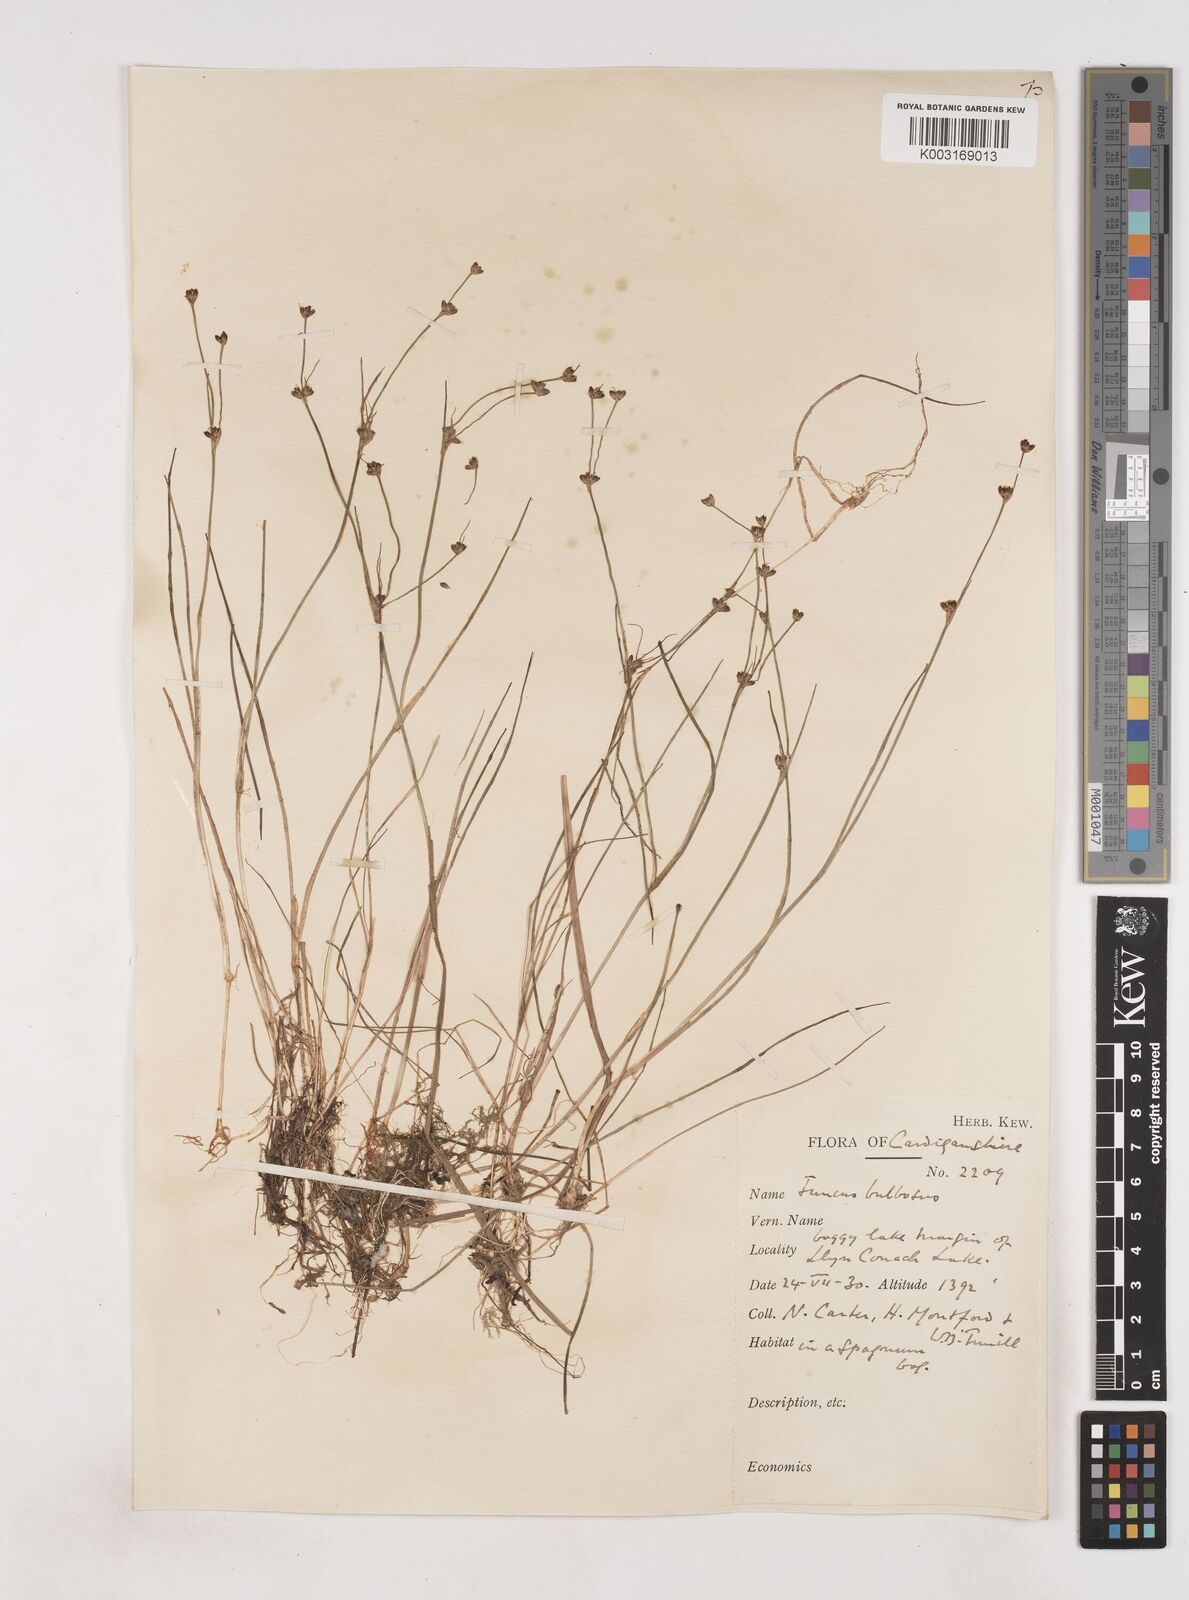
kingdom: Plantae
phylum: Tracheophyta
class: Liliopsida
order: Poales
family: Juncaceae
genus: Juncus
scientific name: Juncus bulbosus
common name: Bulbous rush
